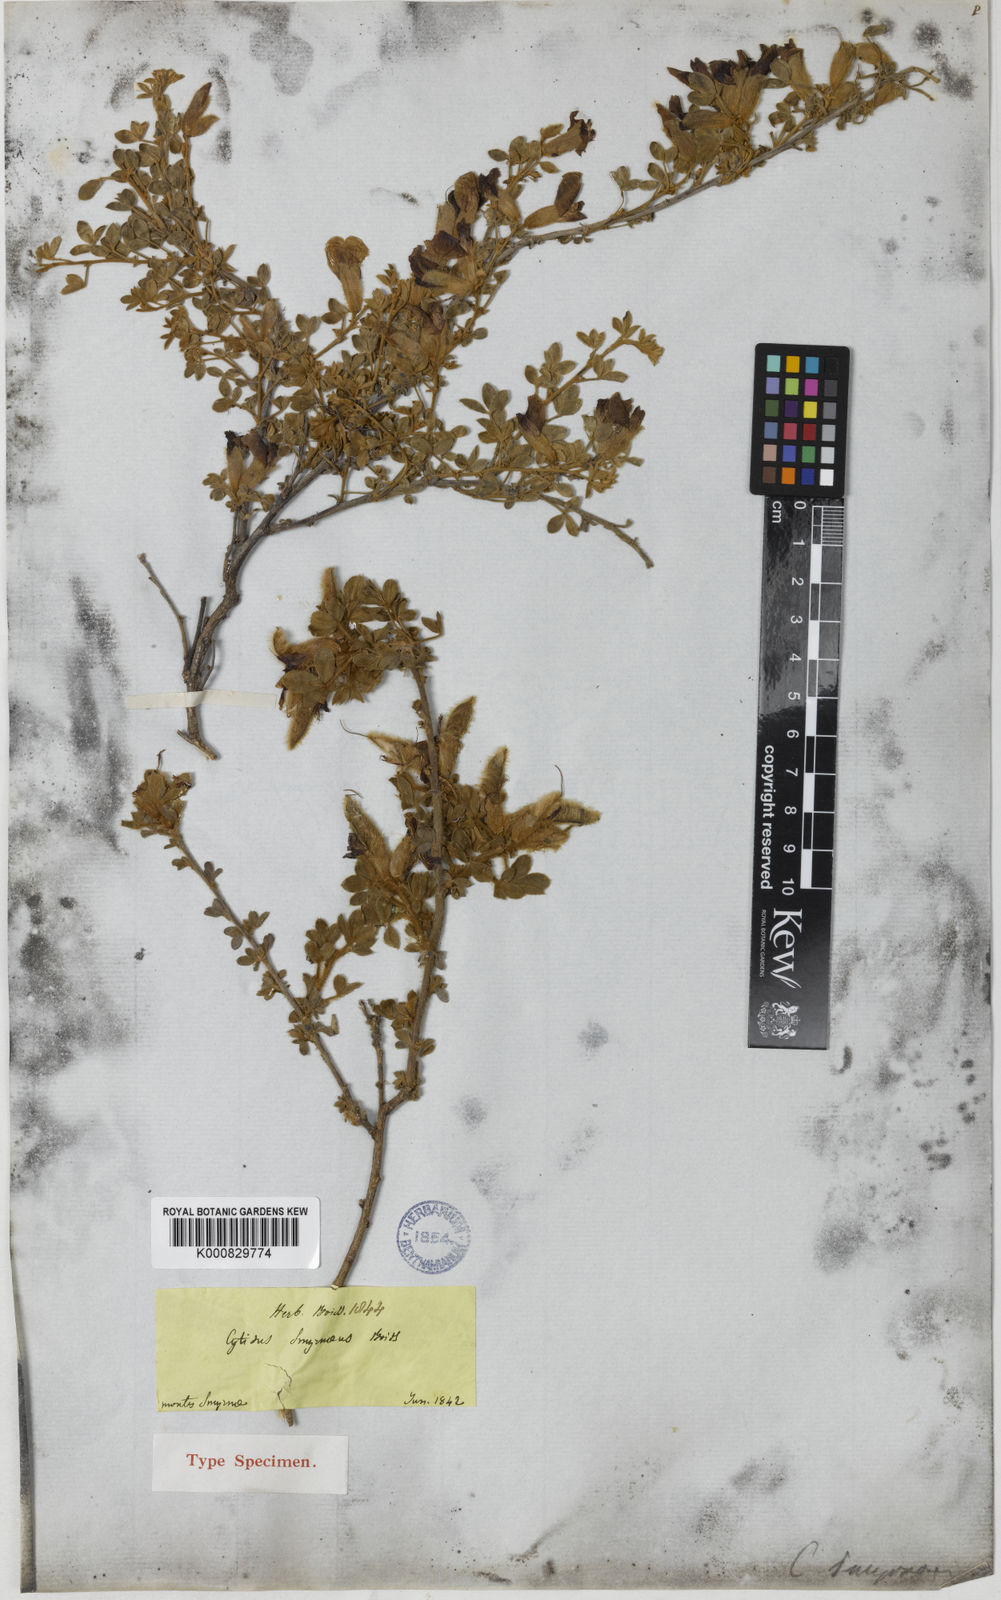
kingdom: Plantae
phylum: Tracheophyta
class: Magnoliopsida
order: Fabales
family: Fabaceae
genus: Chamaecytisus
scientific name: Chamaecytisus eriocarpus
